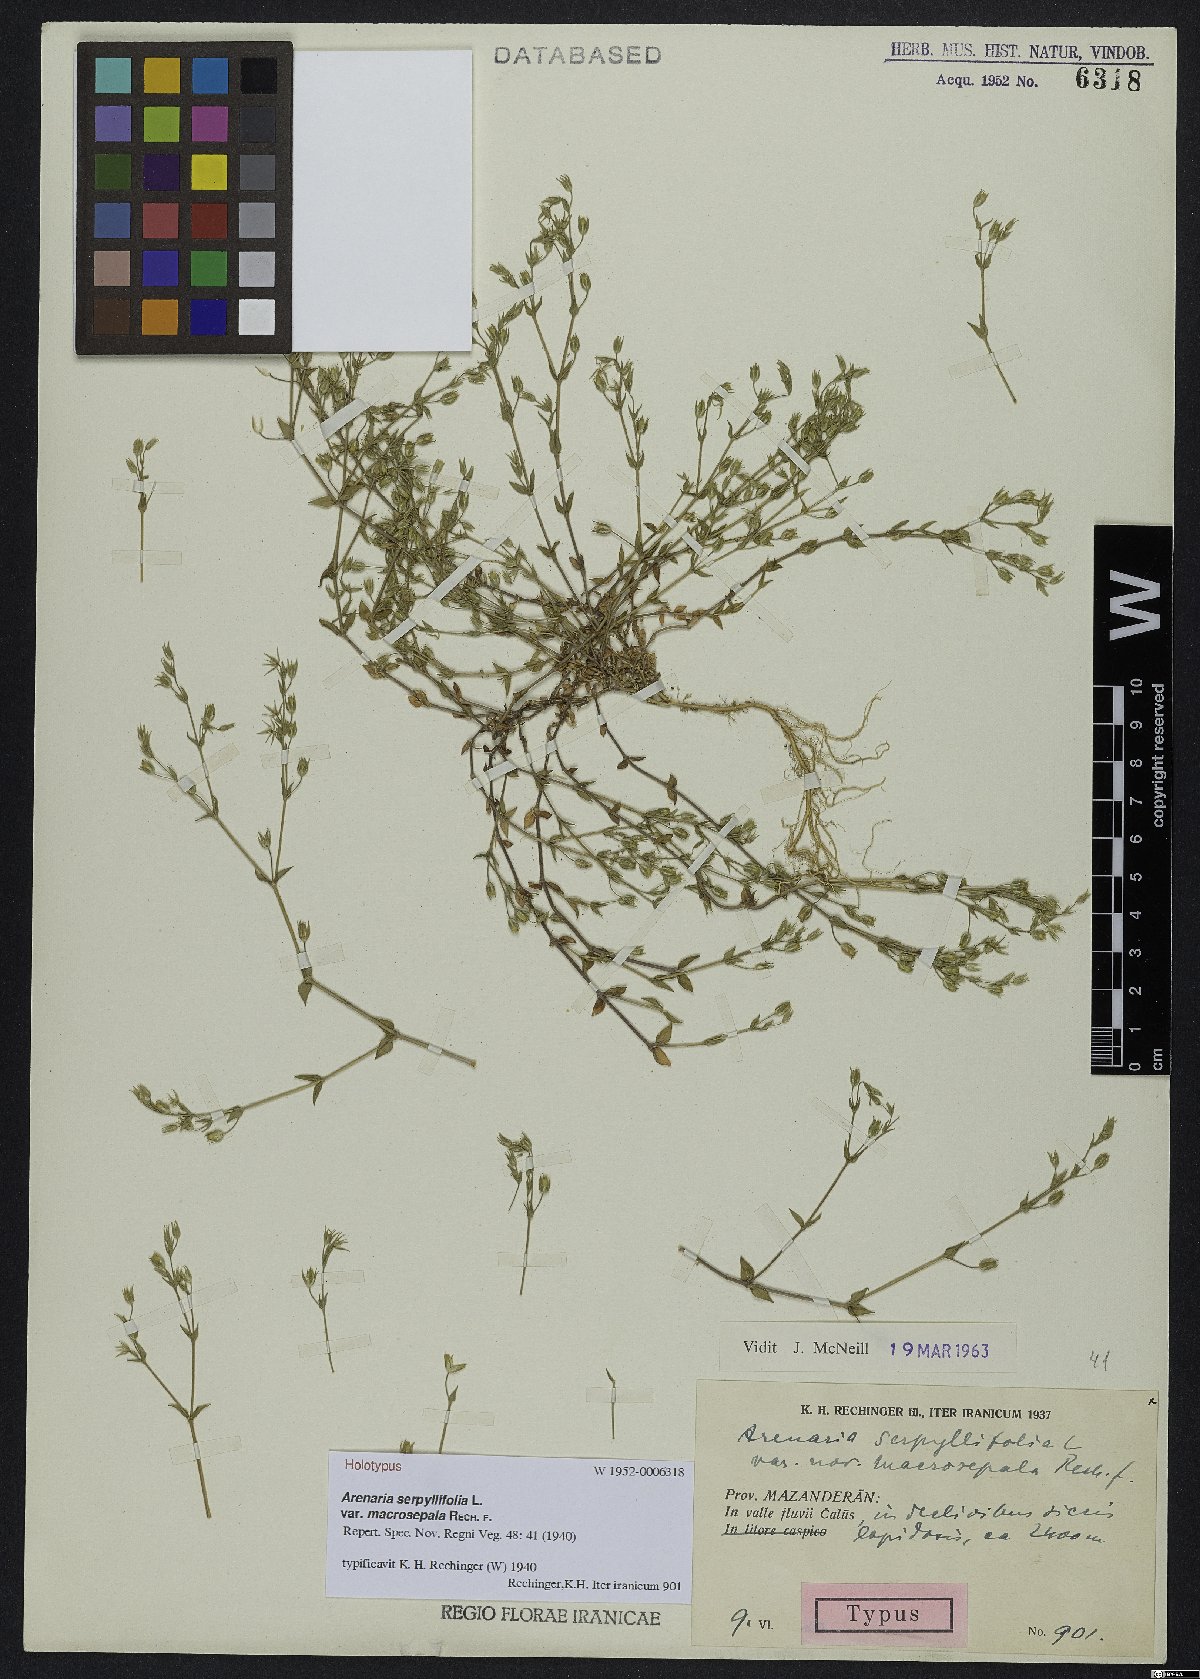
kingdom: Plantae
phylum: Tracheophyta
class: Magnoliopsida
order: Caryophyllales
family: Caryophyllaceae
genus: Arenaria
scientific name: Arenaria serpyllifolia
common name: Thyme-leaved sandwort
